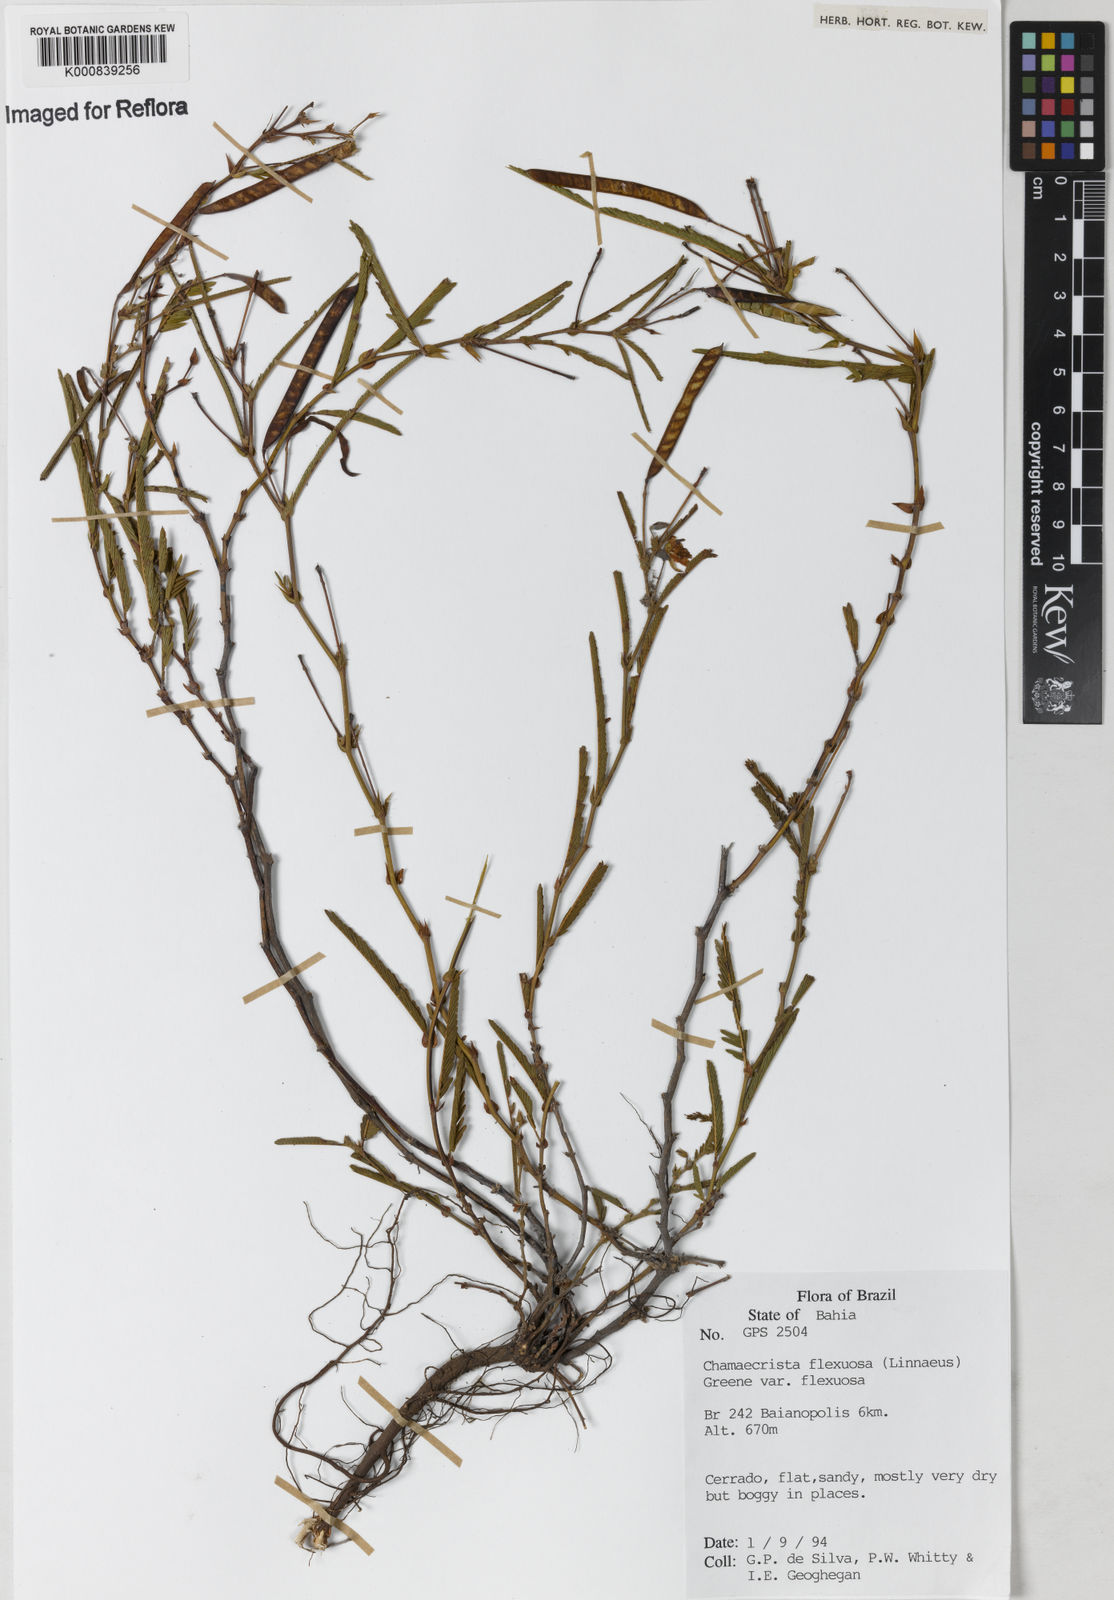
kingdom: Plantae
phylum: Tracheophyta
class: Magnoliopsida
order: Fabales
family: Fabaceae
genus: Chamaecrista
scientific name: Chamaecrista flexuosa
